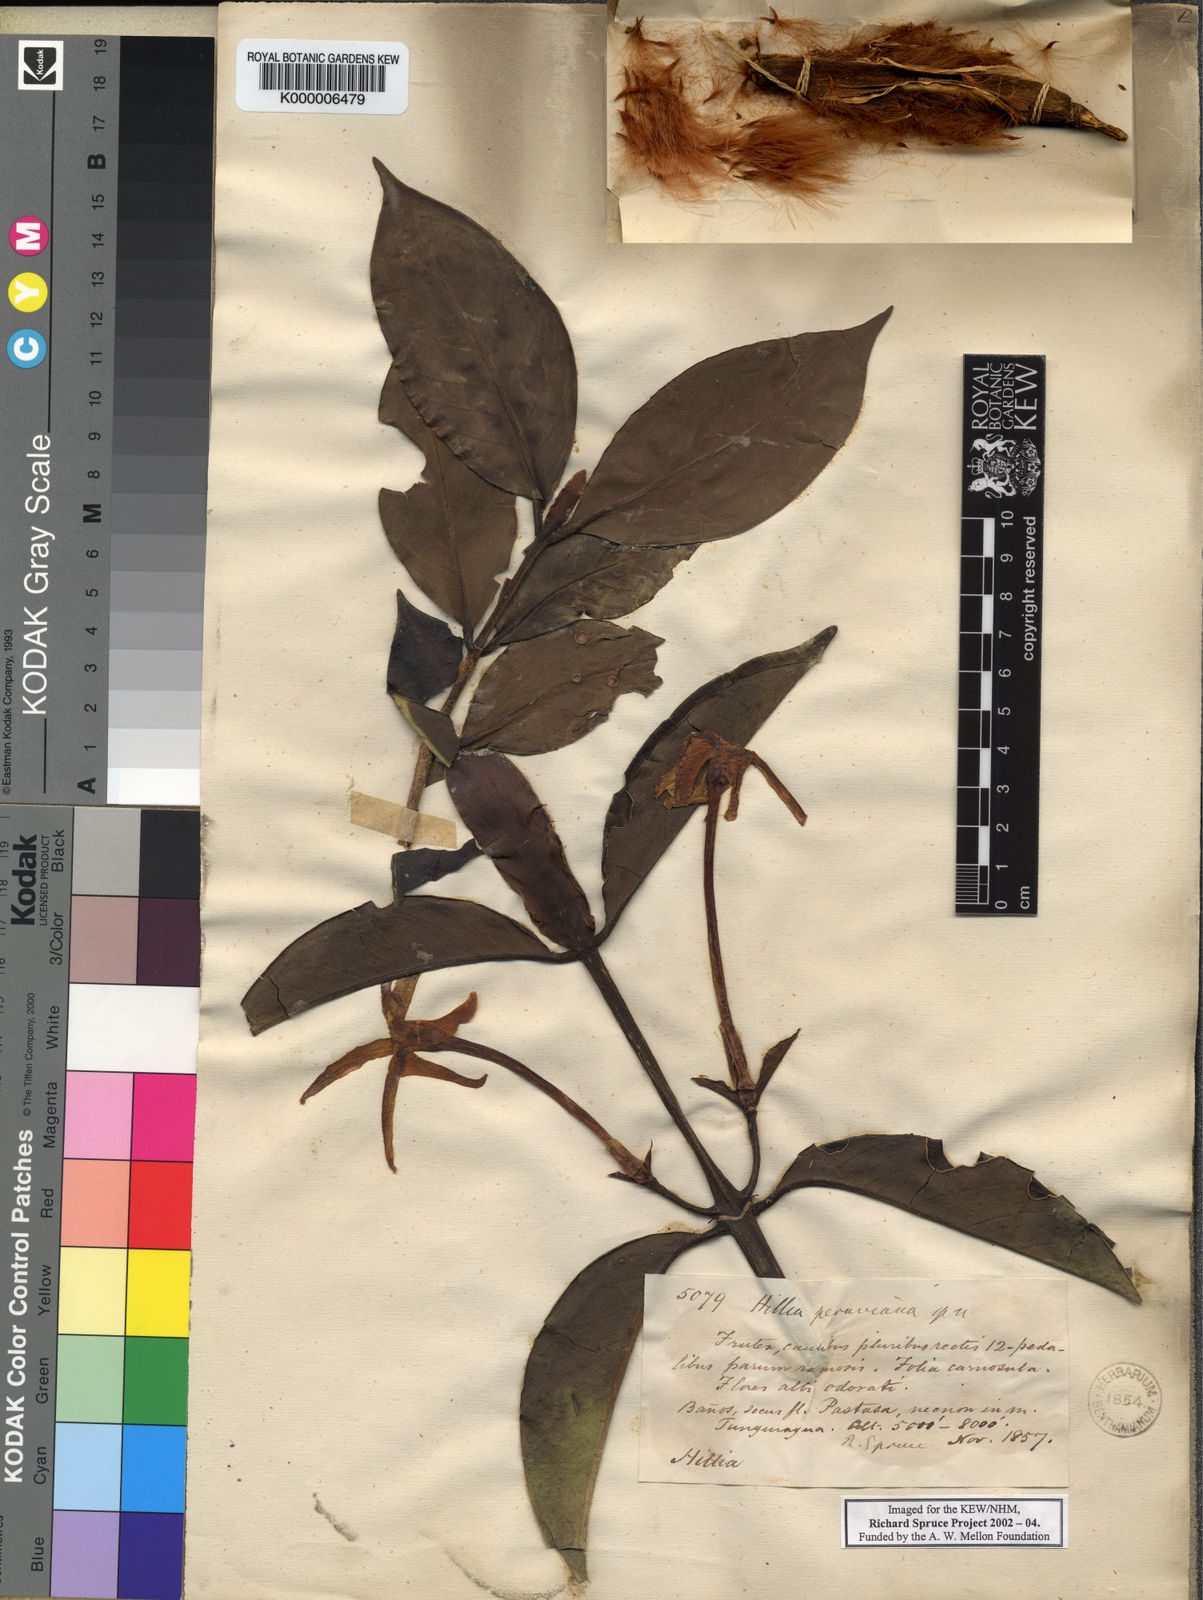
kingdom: Plantae
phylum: Tracheophyta
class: Magnoliopsida
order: Gentianales
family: Rubiaceae
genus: Hillia
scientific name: Hillia parasitica
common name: Morning star
